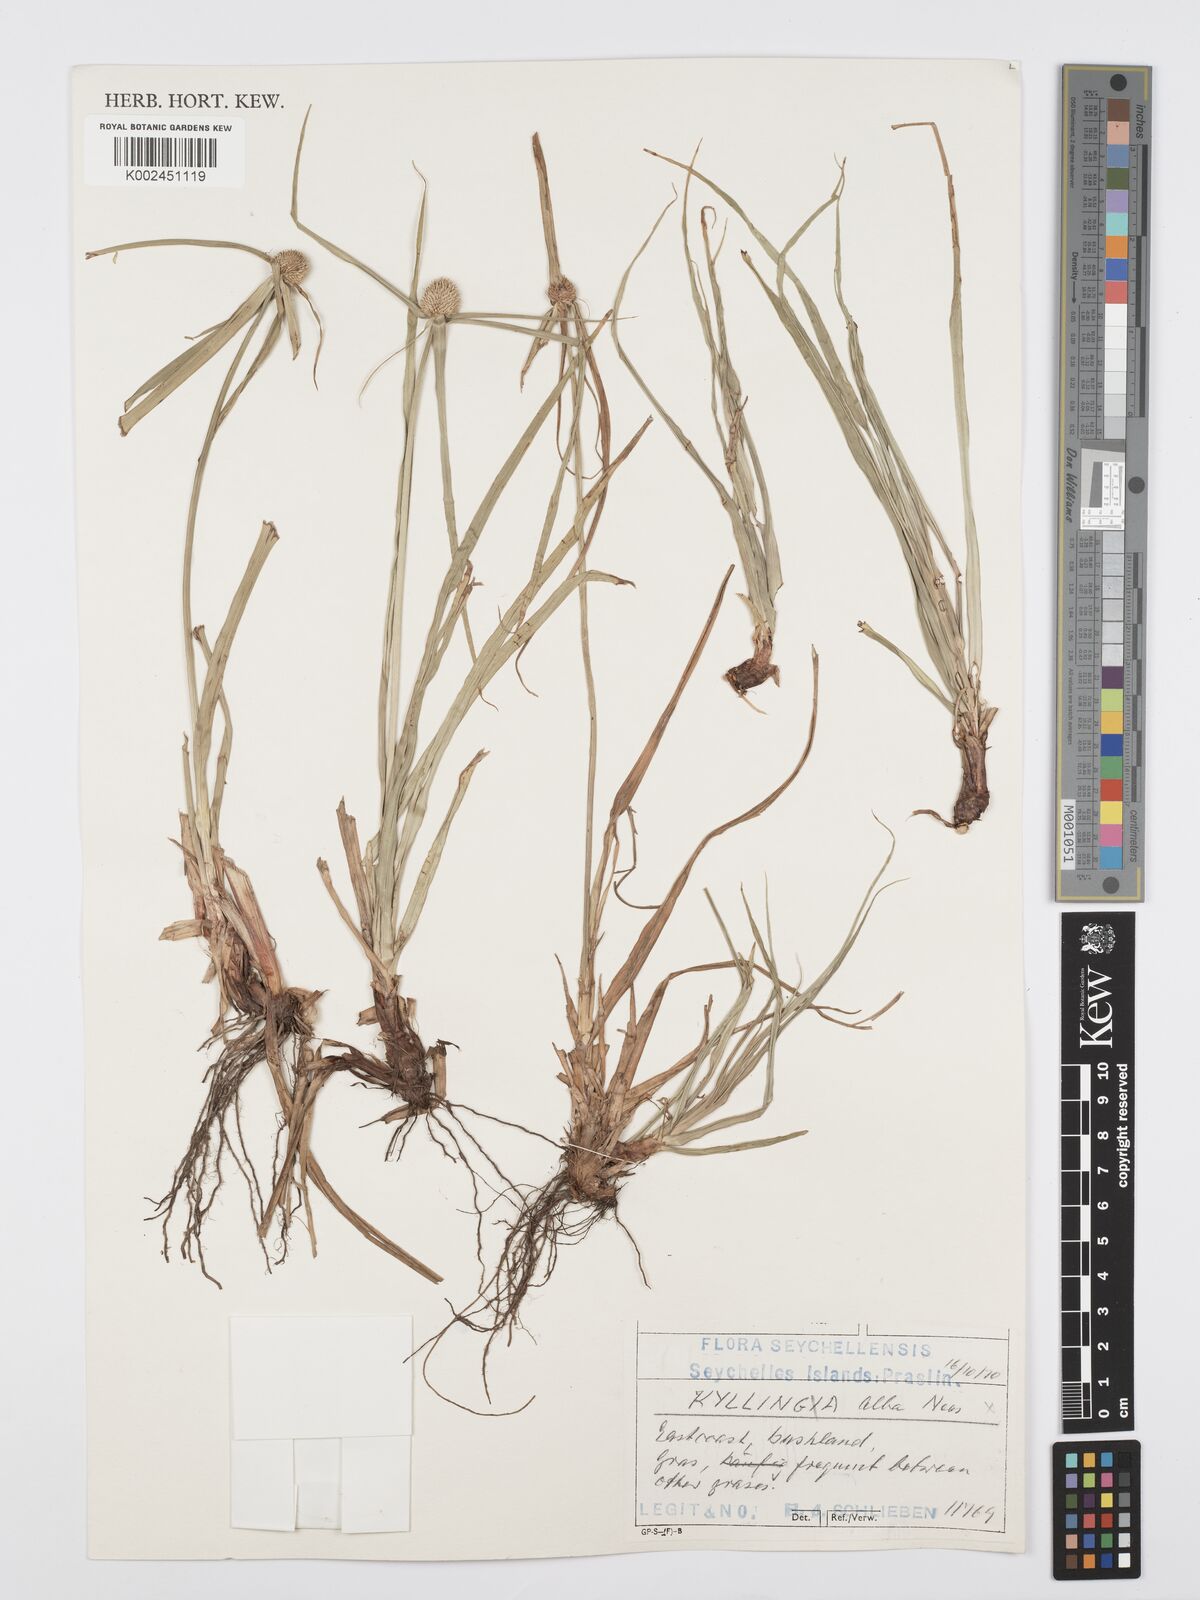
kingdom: Plantae
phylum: Tracheophyta
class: Liliopsida
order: Poales
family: Cyperaceae
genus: Cyperus
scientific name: Cyperus
